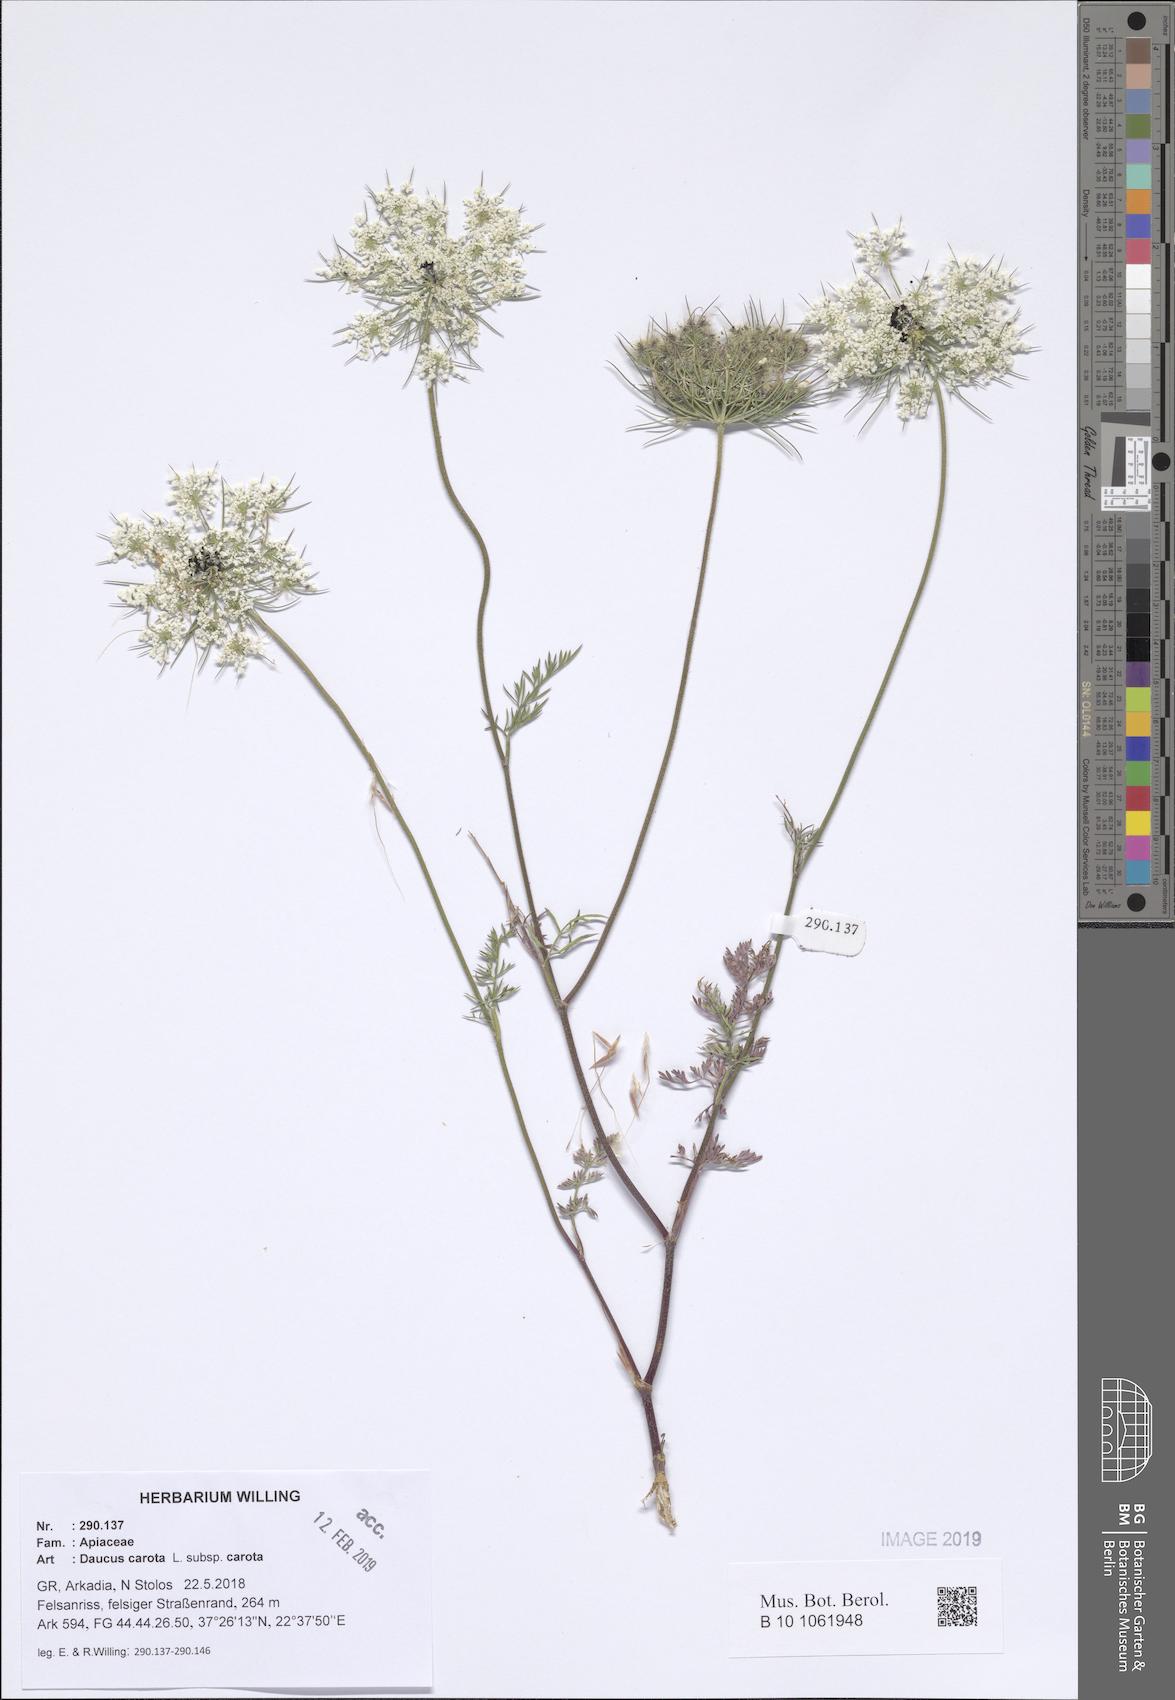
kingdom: Plantae
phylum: Tracheophyta
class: Magnoliopsida
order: Apiales
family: Apiaceae
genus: Daucus
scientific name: Daucus carota
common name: Wild carrot
